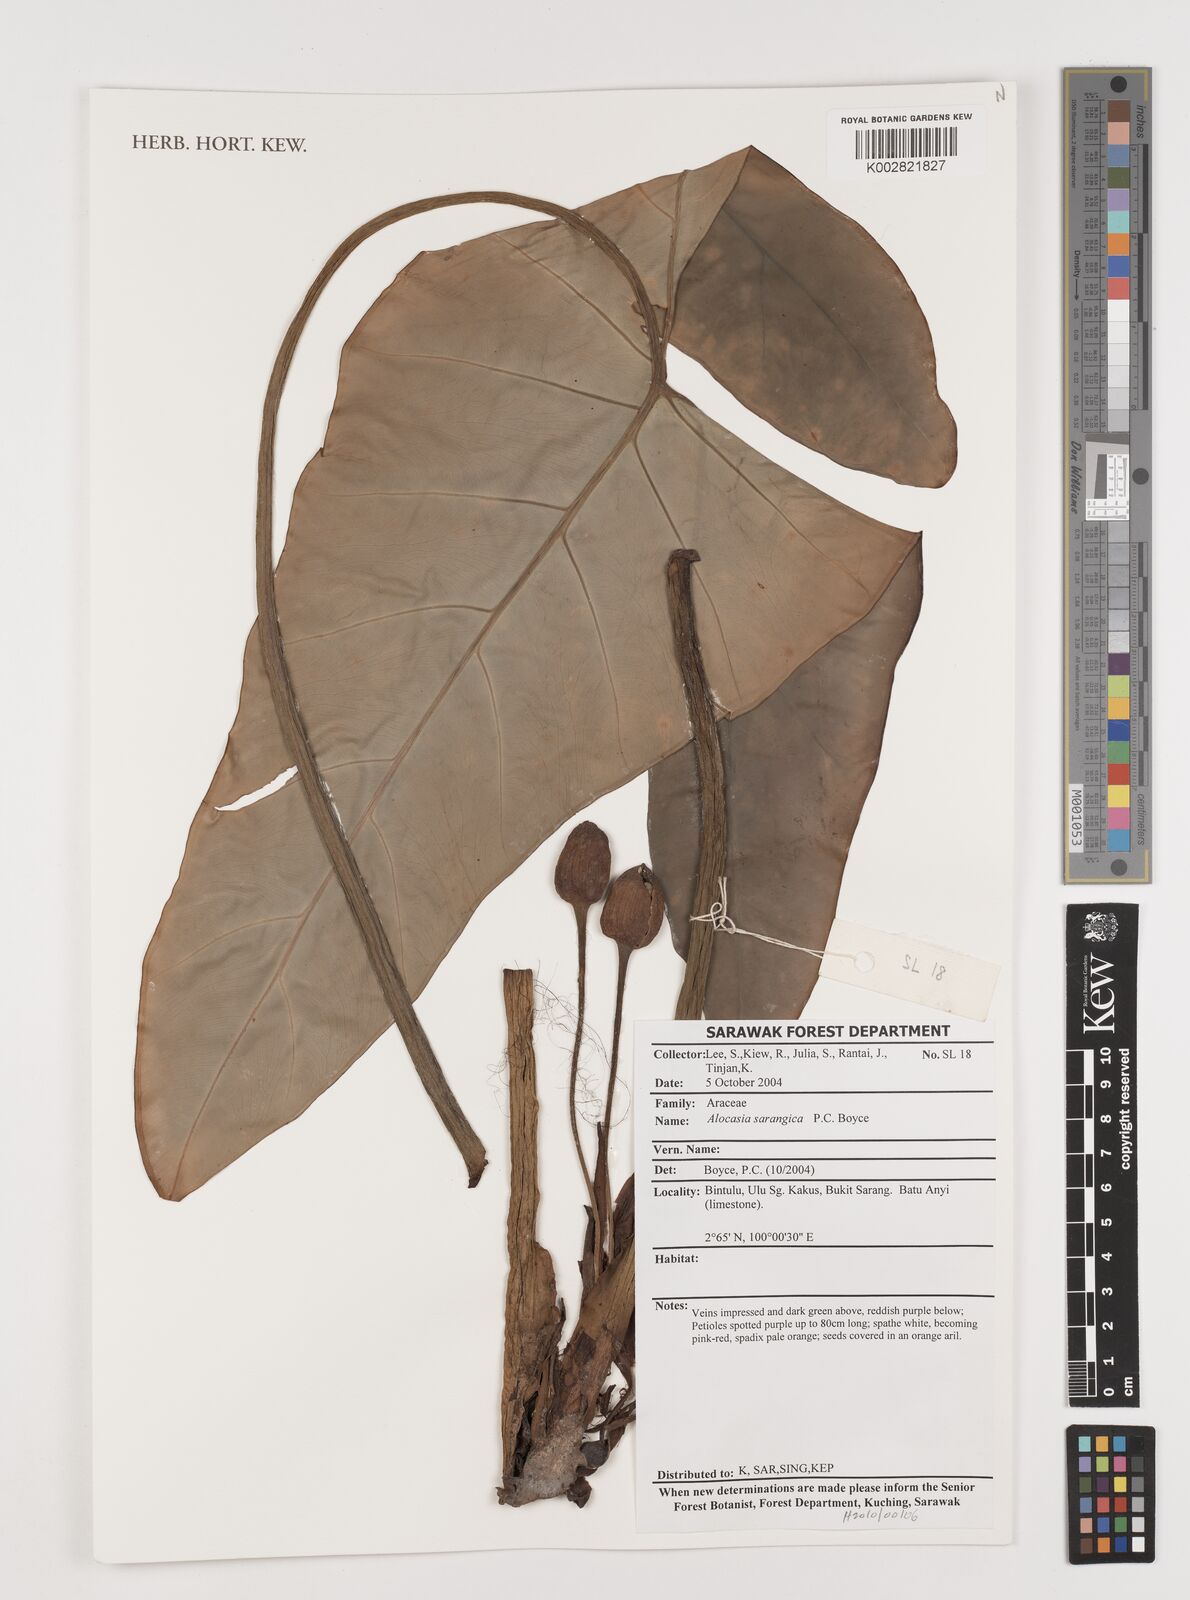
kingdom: Plantae
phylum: Tracheophyta
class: Liliopsida
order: Alismatales
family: Araceae
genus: Alocasia
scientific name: Alocasia
